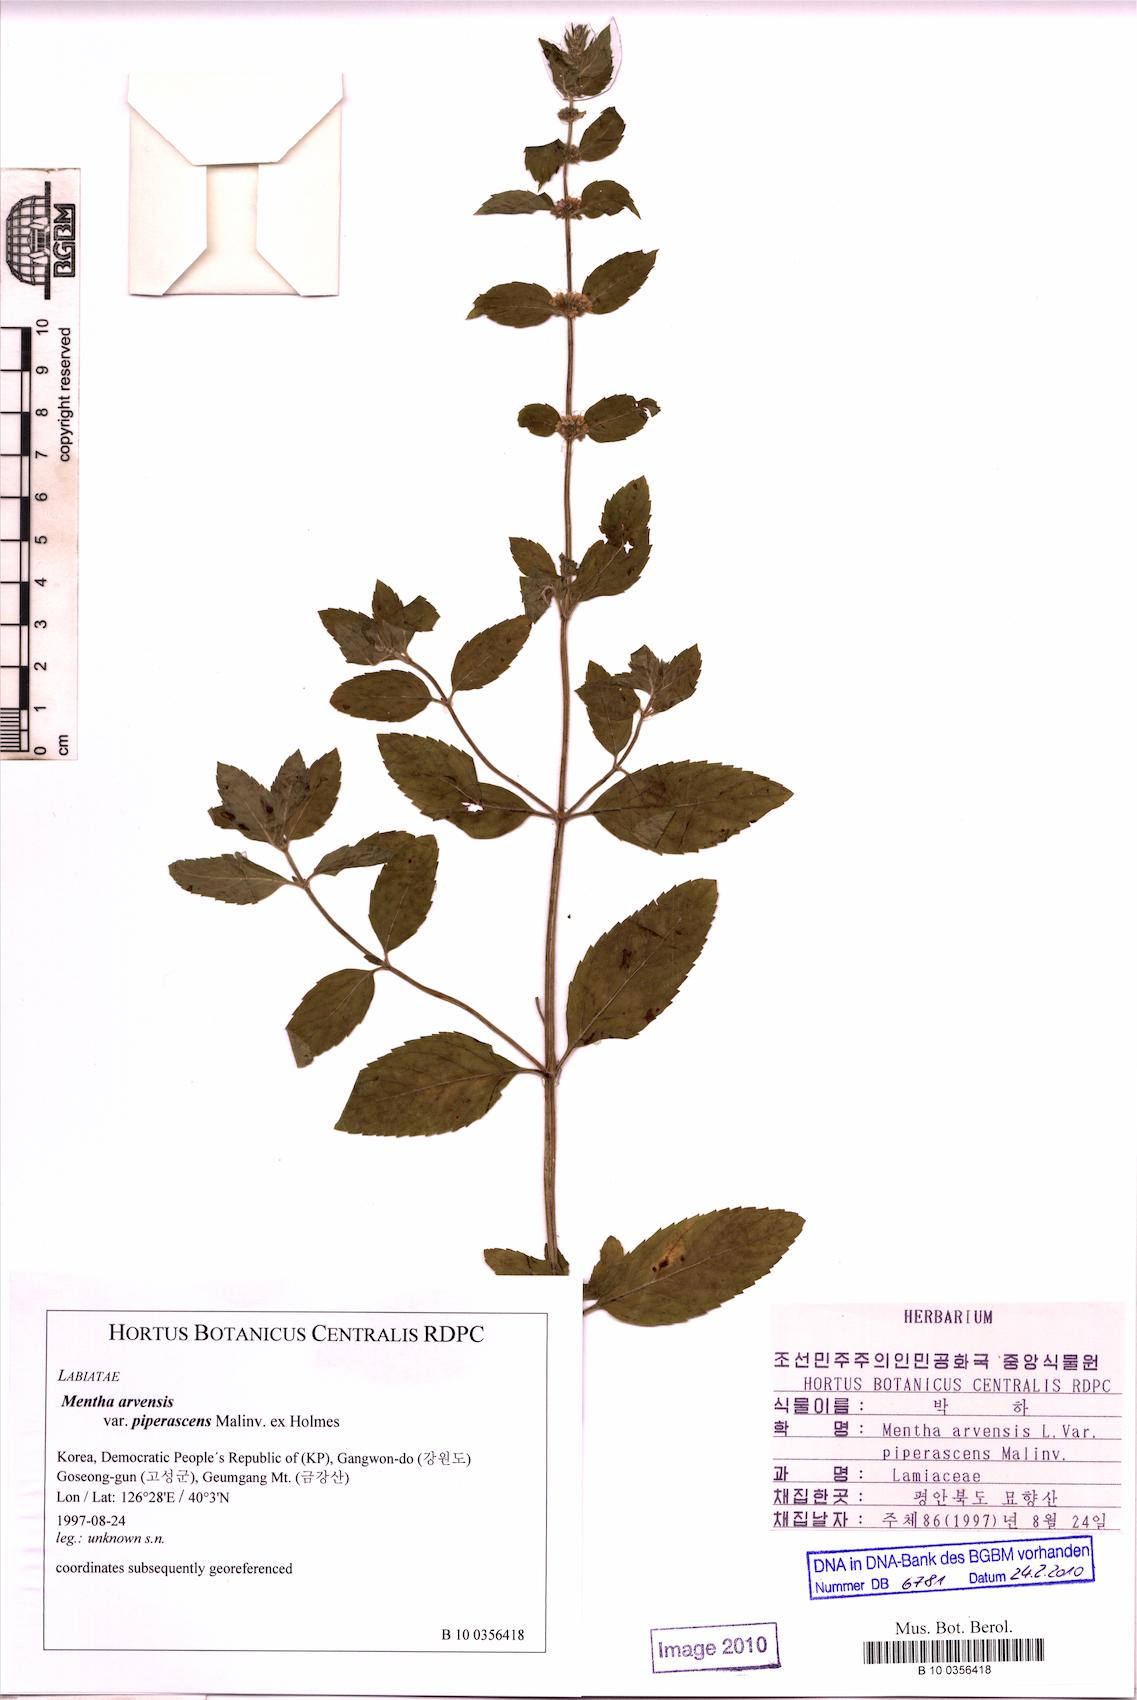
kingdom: Plantae
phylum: Tracheophyta
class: Magnoliopsida
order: Lamiales
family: Lamiaceae
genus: Mentha
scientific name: Mentha canadensis
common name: American corn mint
